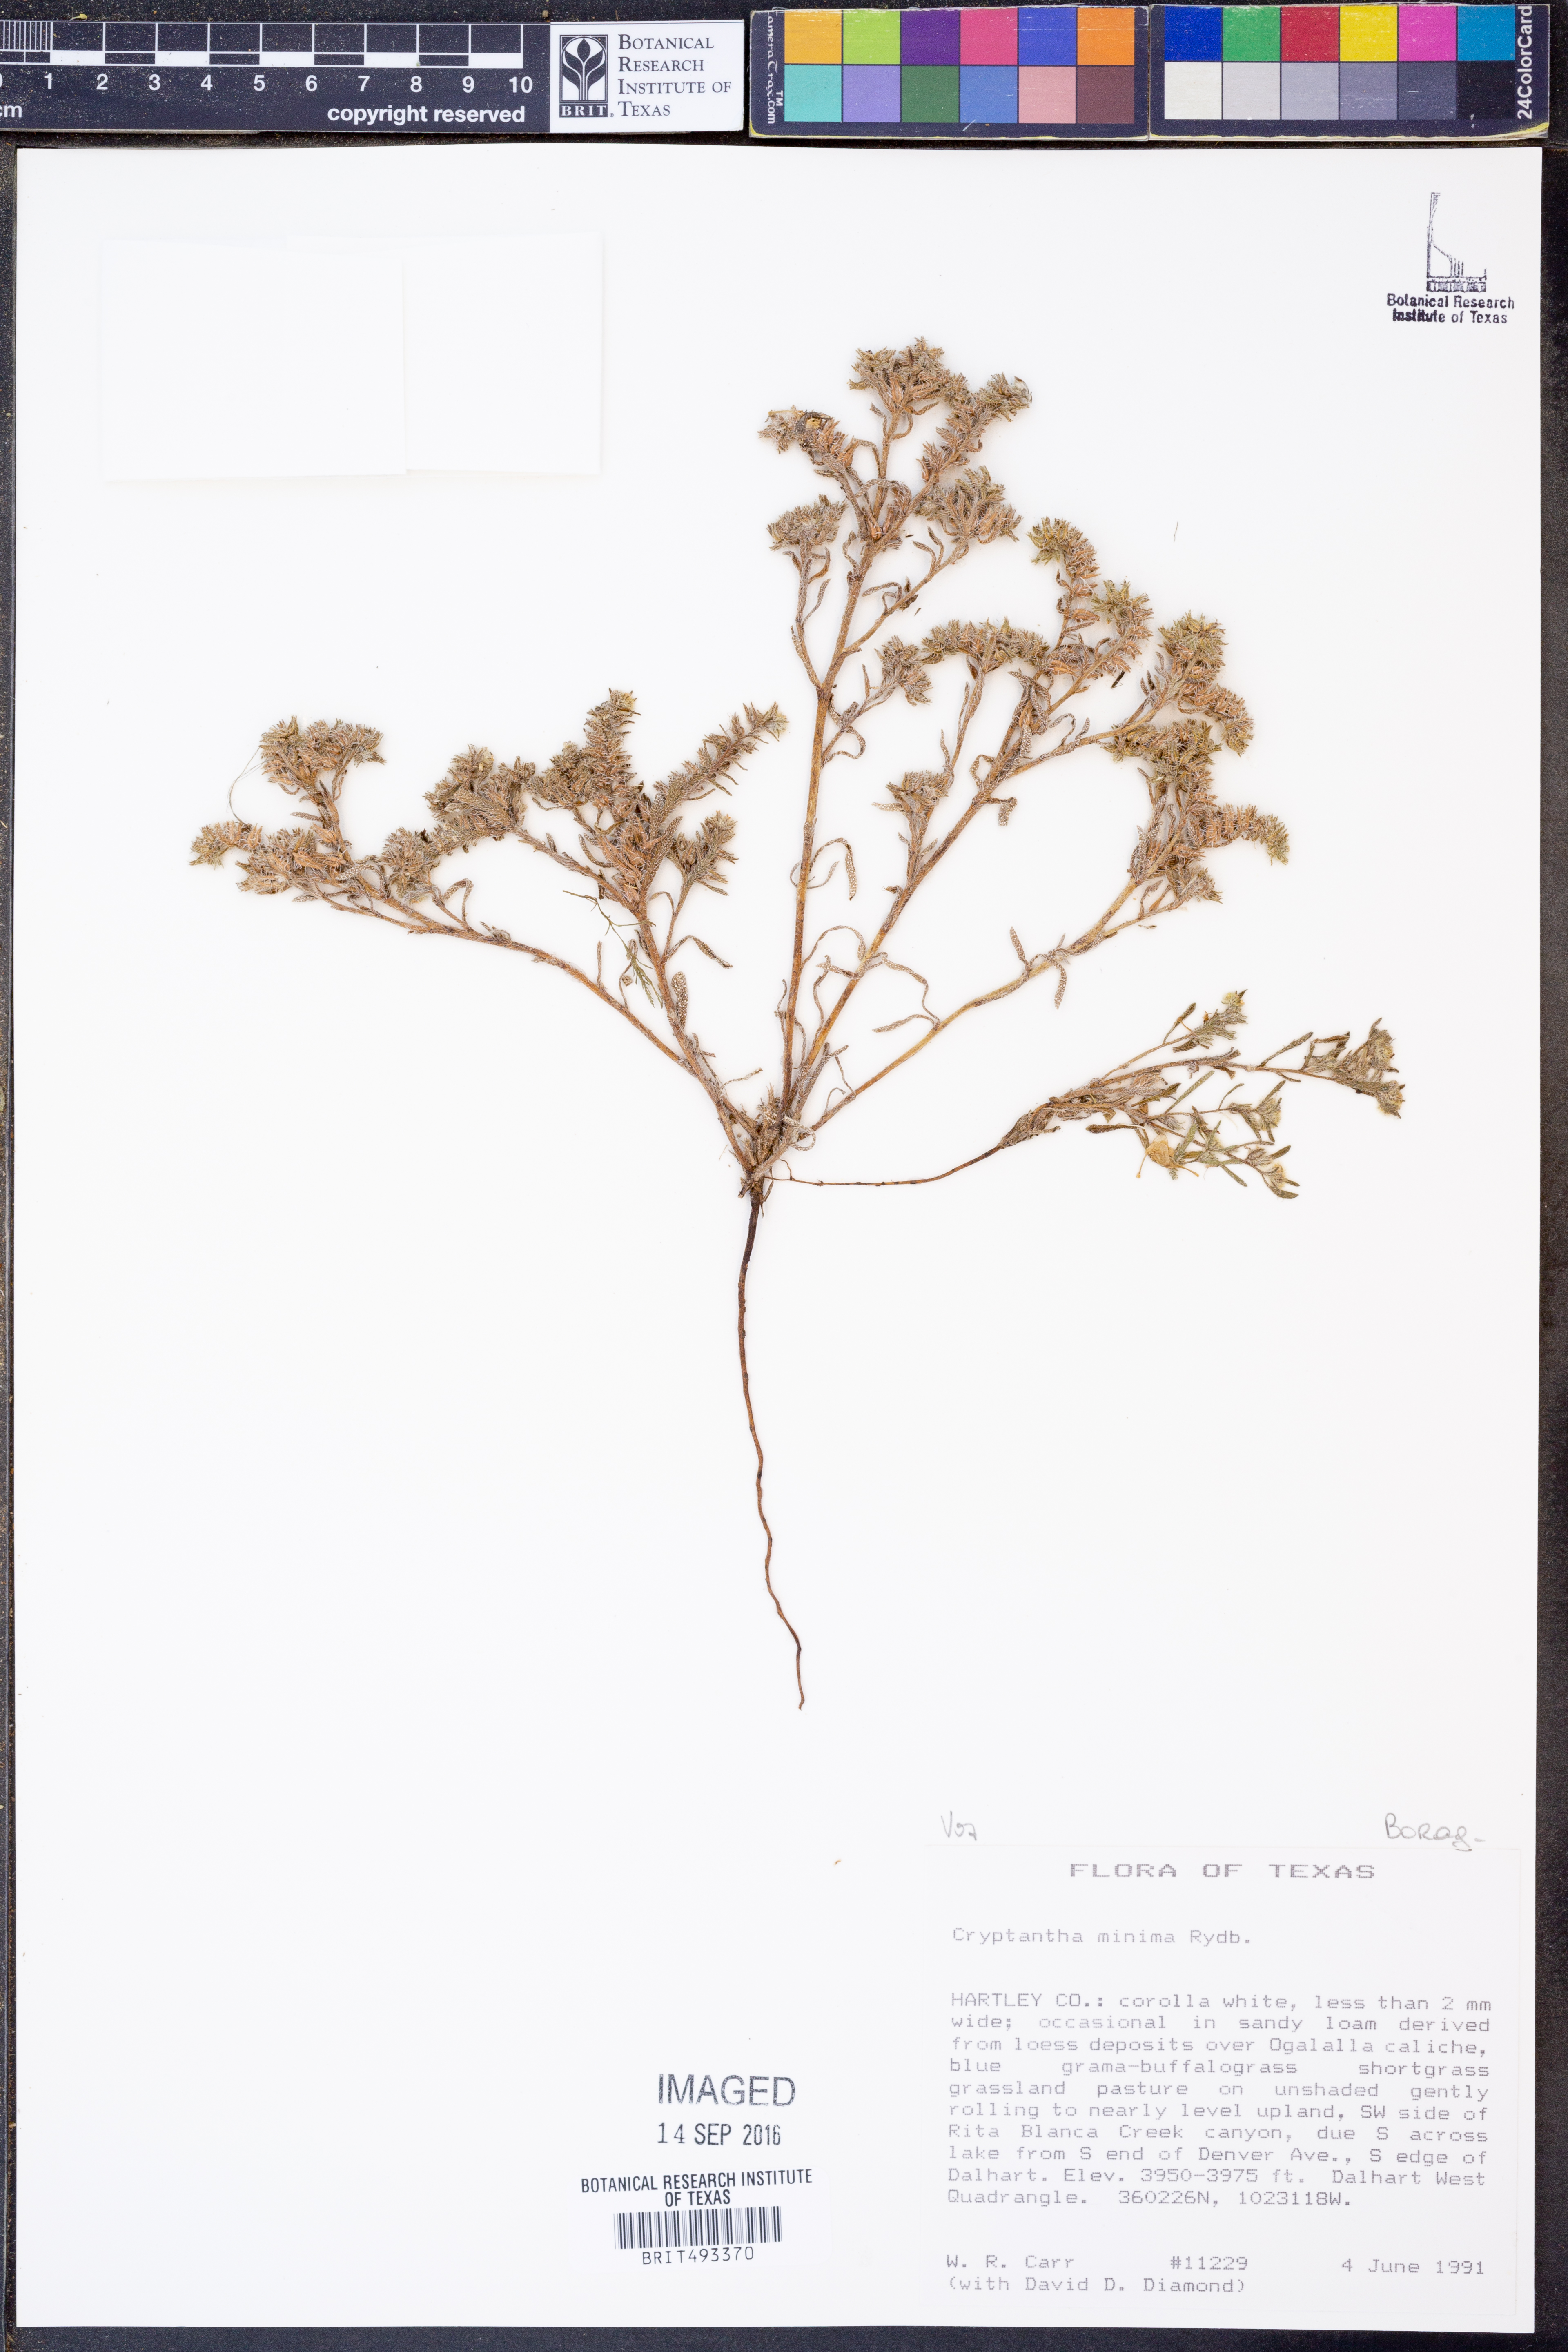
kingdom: Plantae
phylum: Tracheophyta
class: Magnoliopsida
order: Boraginales
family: Boraginaceae
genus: Cryptantha
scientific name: Cryptantha minima
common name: Little cat's-eye
